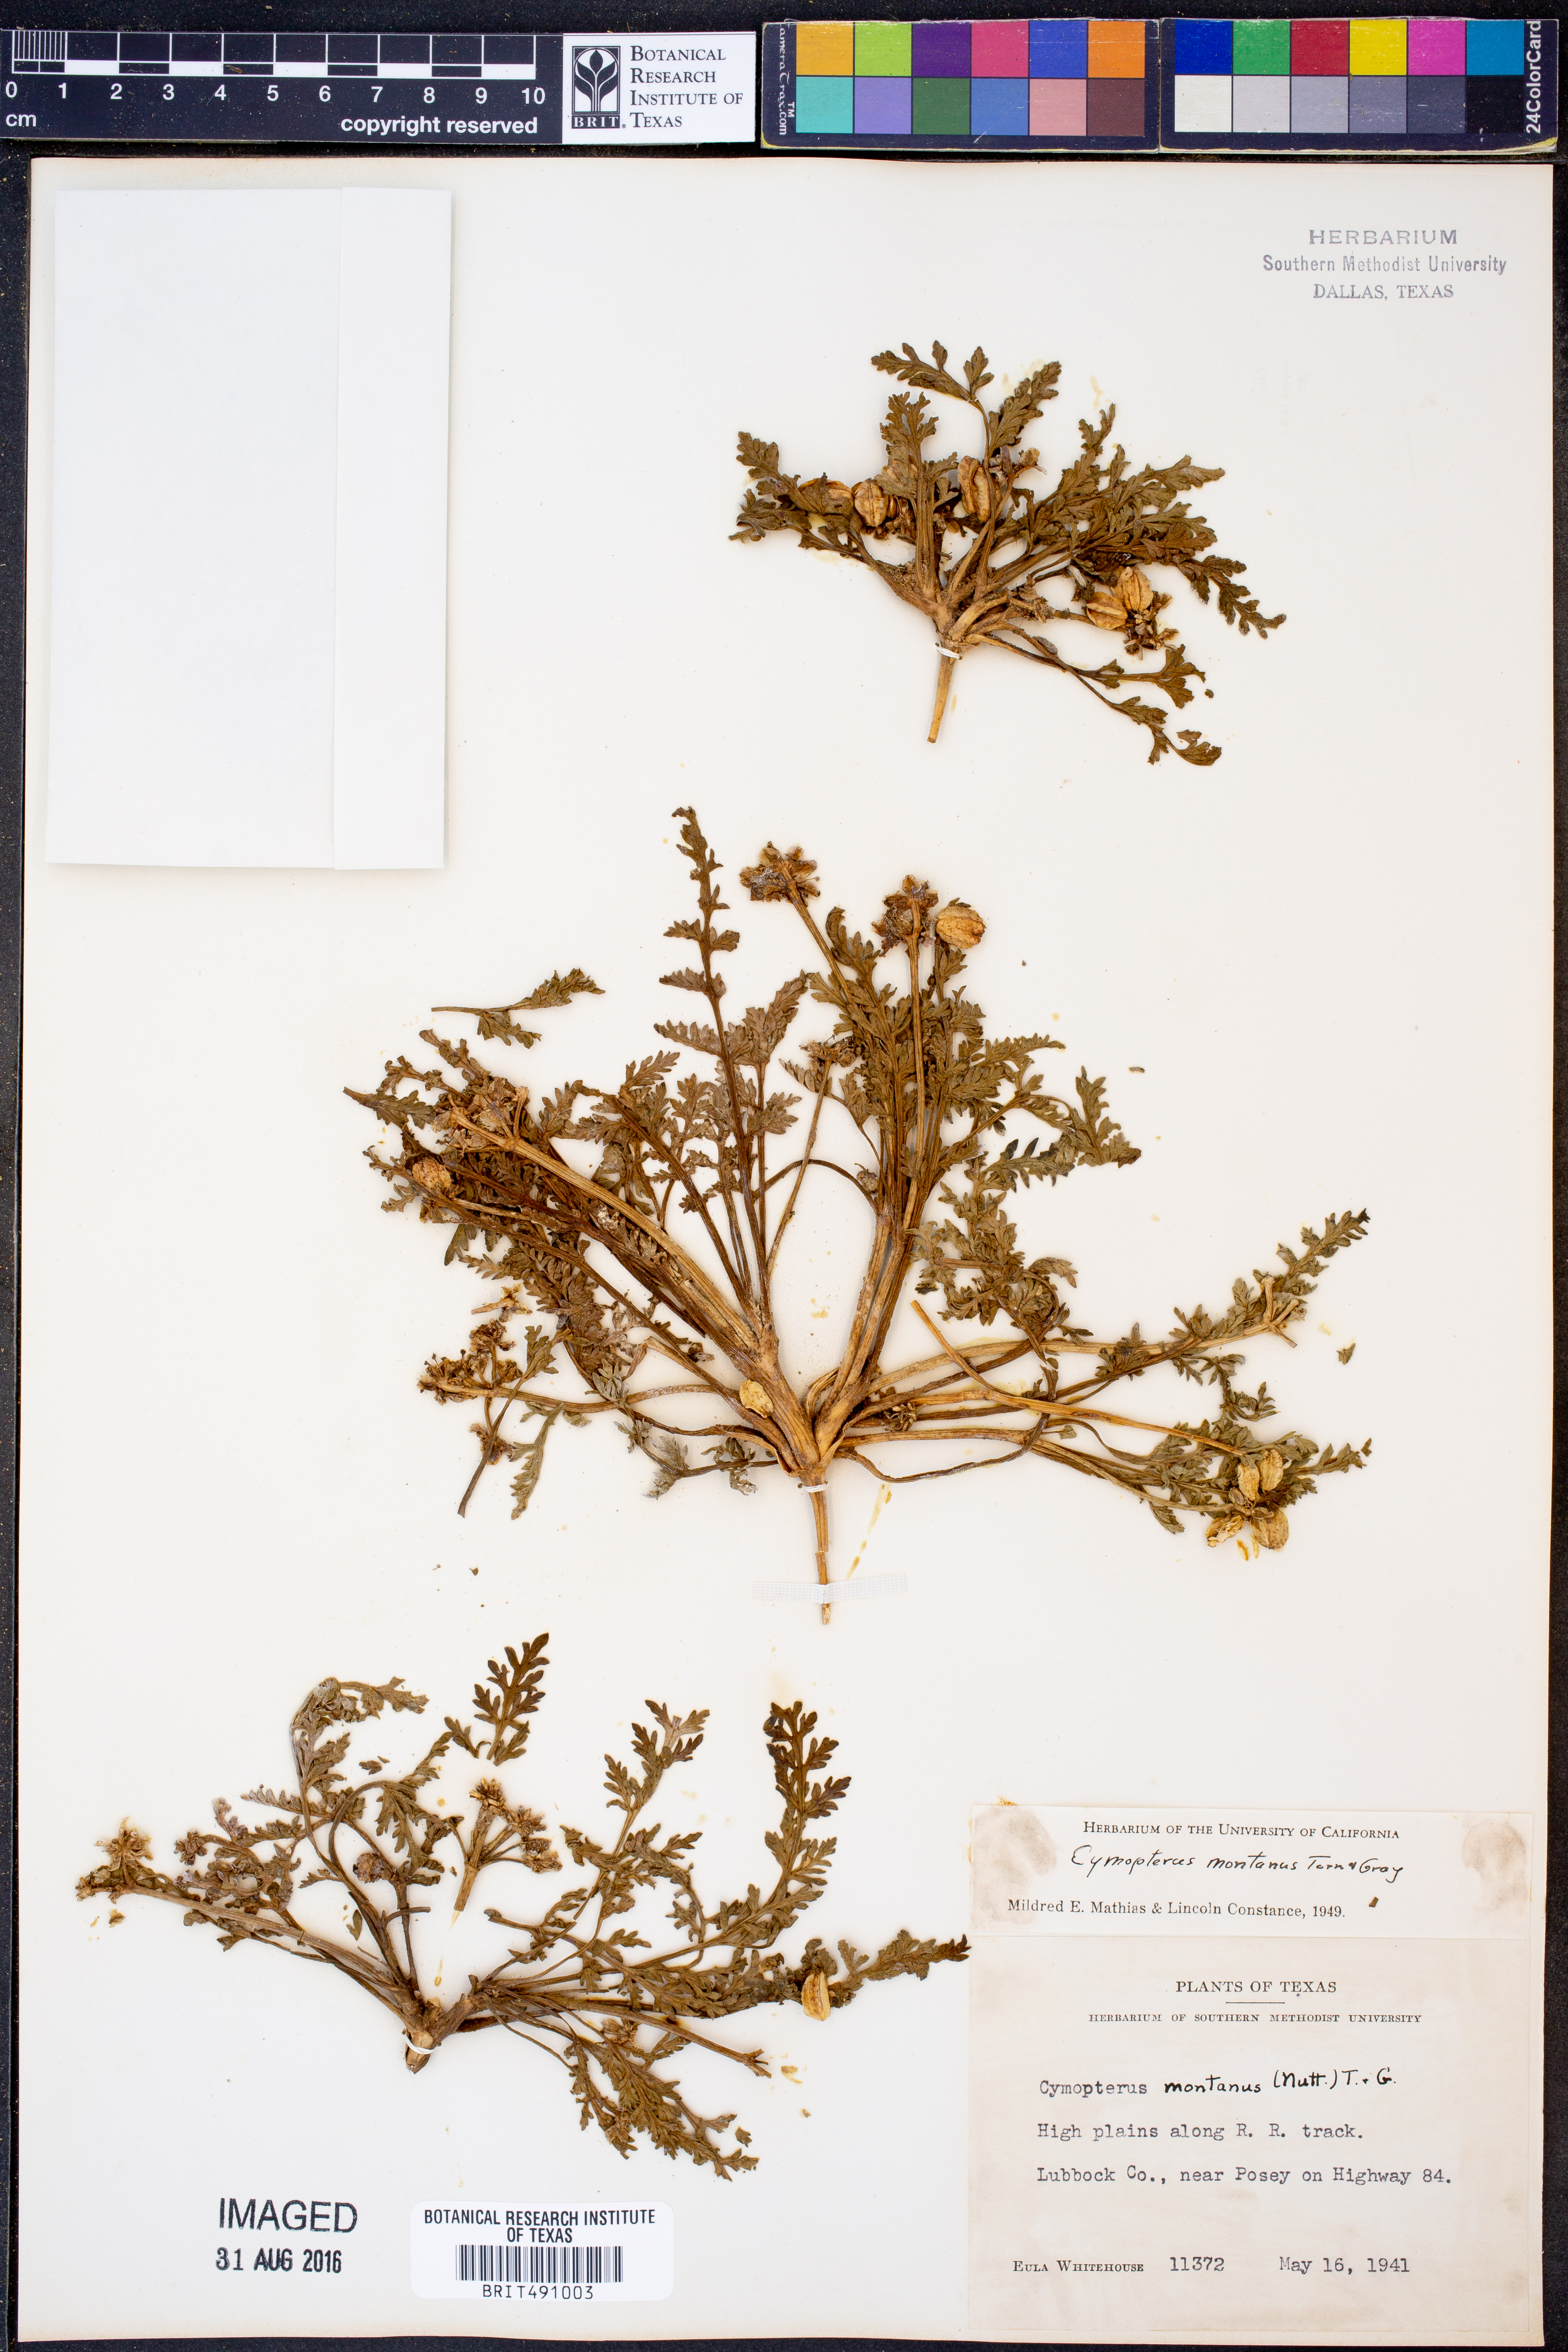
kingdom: Plantae
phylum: Tracheophyta
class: Magnoliopsida
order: Apiales
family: Apiaceae
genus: Vesper
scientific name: Vesper montanus
